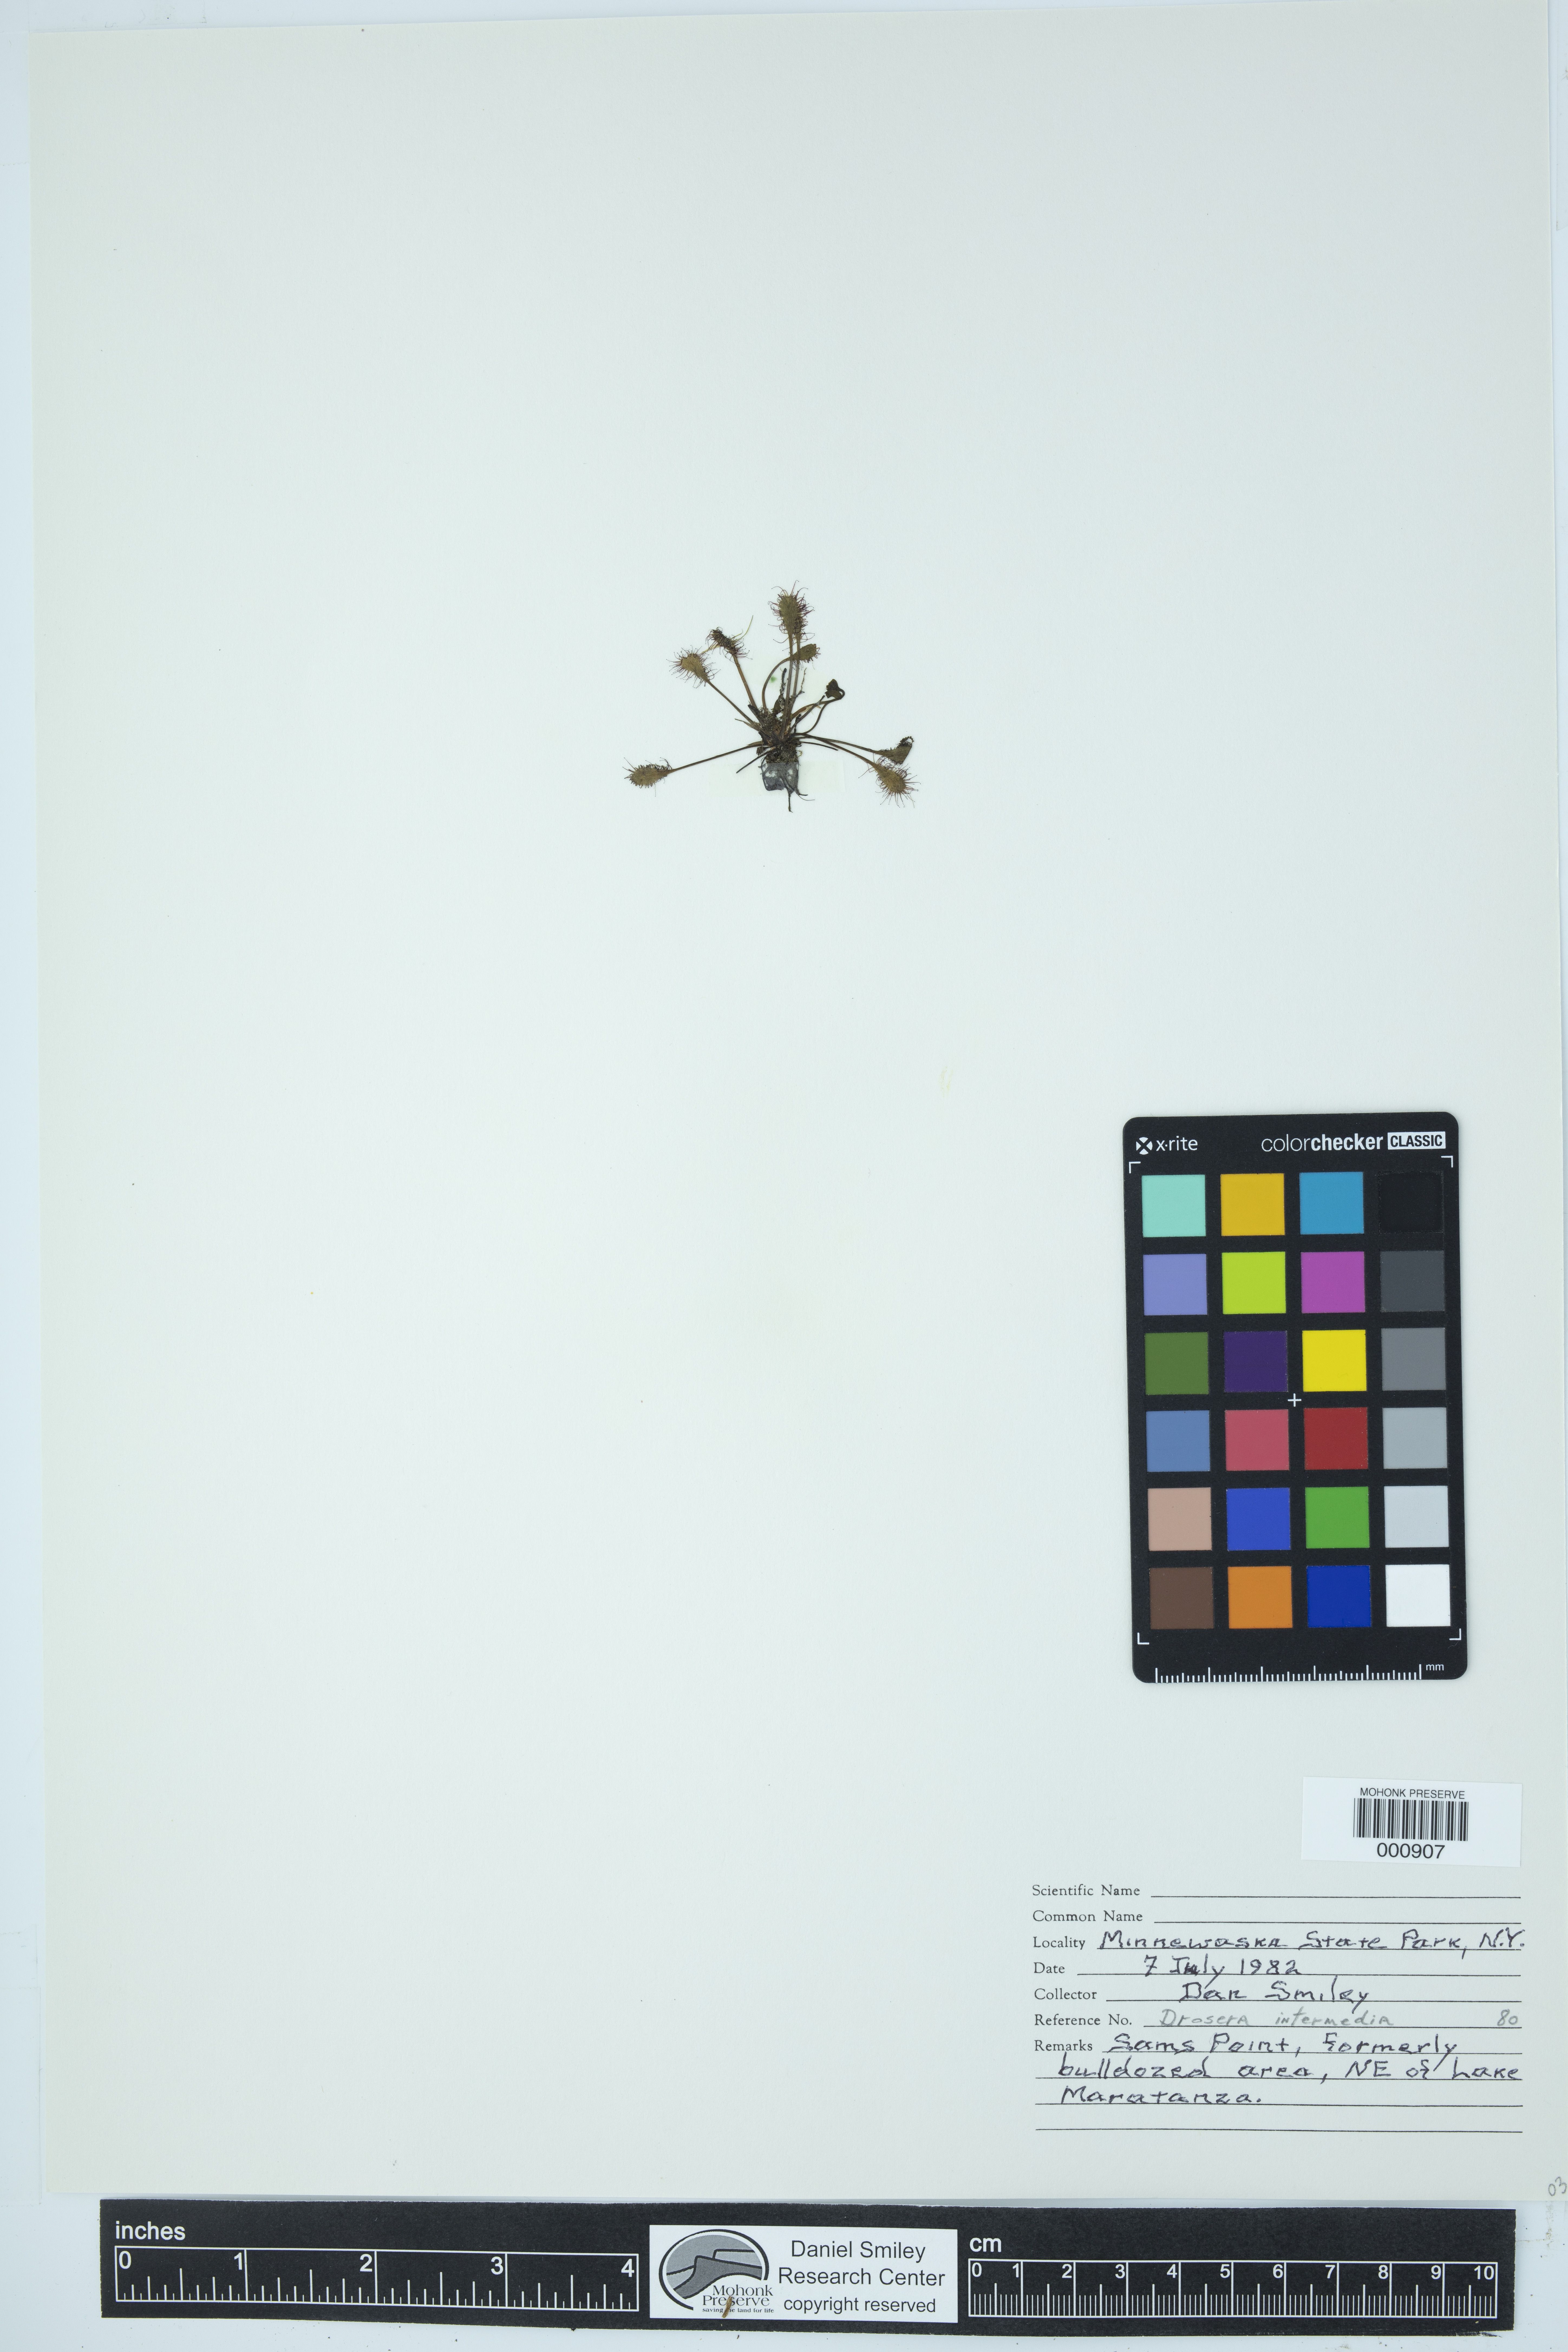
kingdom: Plantae
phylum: Tracheophyta
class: Magnoliopsida
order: Caryophyllales
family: Droseraceae
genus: Drosera
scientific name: Drosera intermedia
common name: Oblong-leaved sundew
